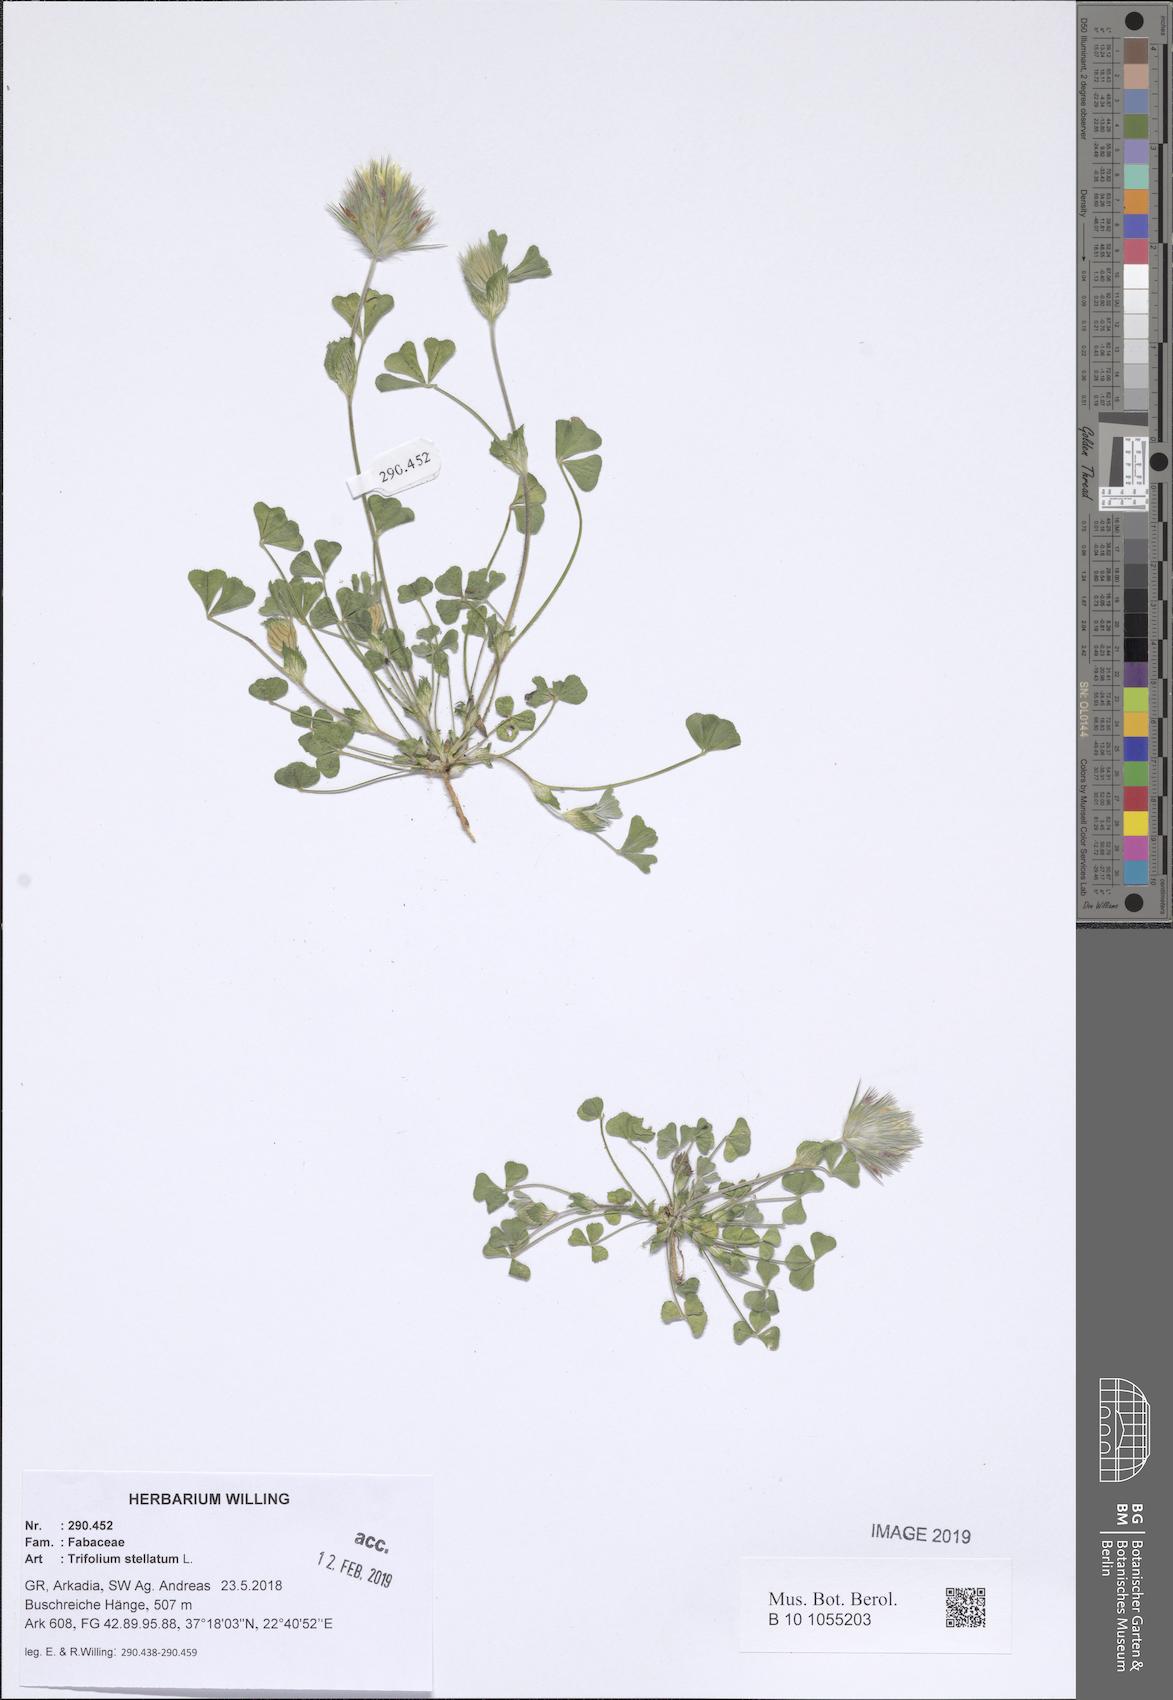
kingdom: Plantae
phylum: Tracheophyta
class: Magnoliopsida
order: Fabales
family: Fabaceae
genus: Trifolium
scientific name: Trifolium stellatum
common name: Starry clover
